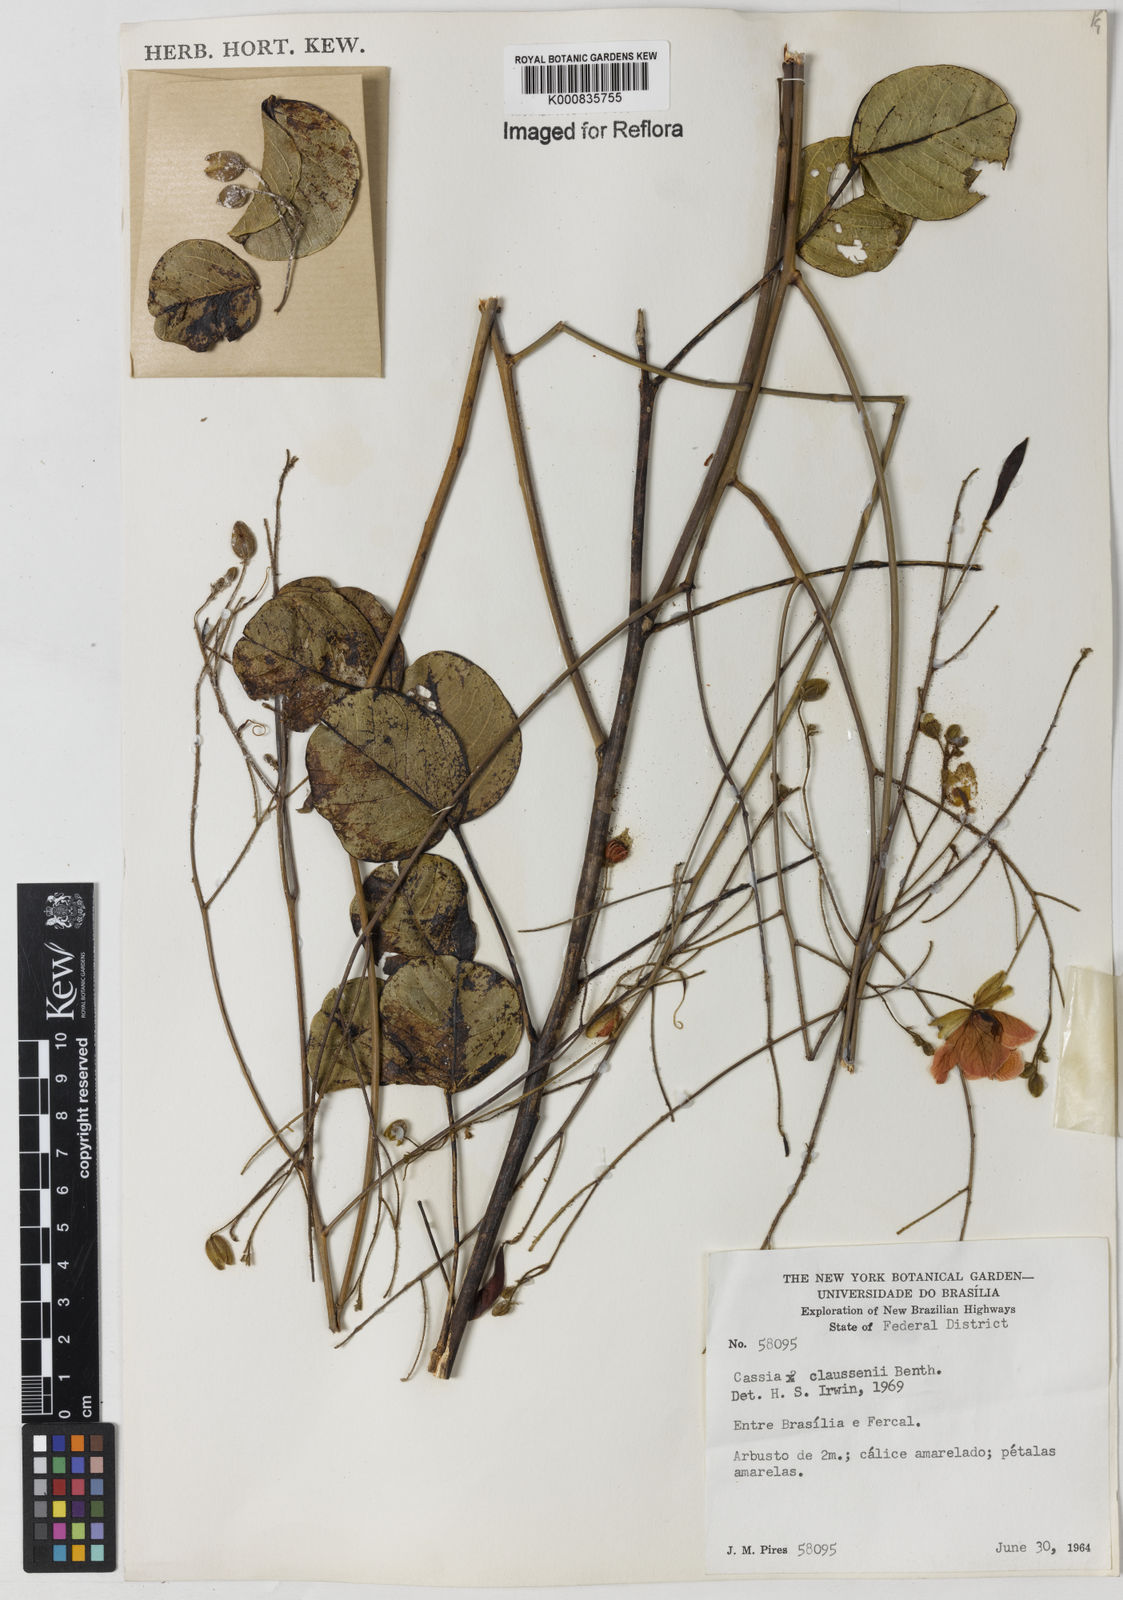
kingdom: Plantae
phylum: Tracheophyta
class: Magnoliopsida
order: Fabales
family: Fabaceae
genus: Chamaecrista
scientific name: Chamaecrista claussenii
